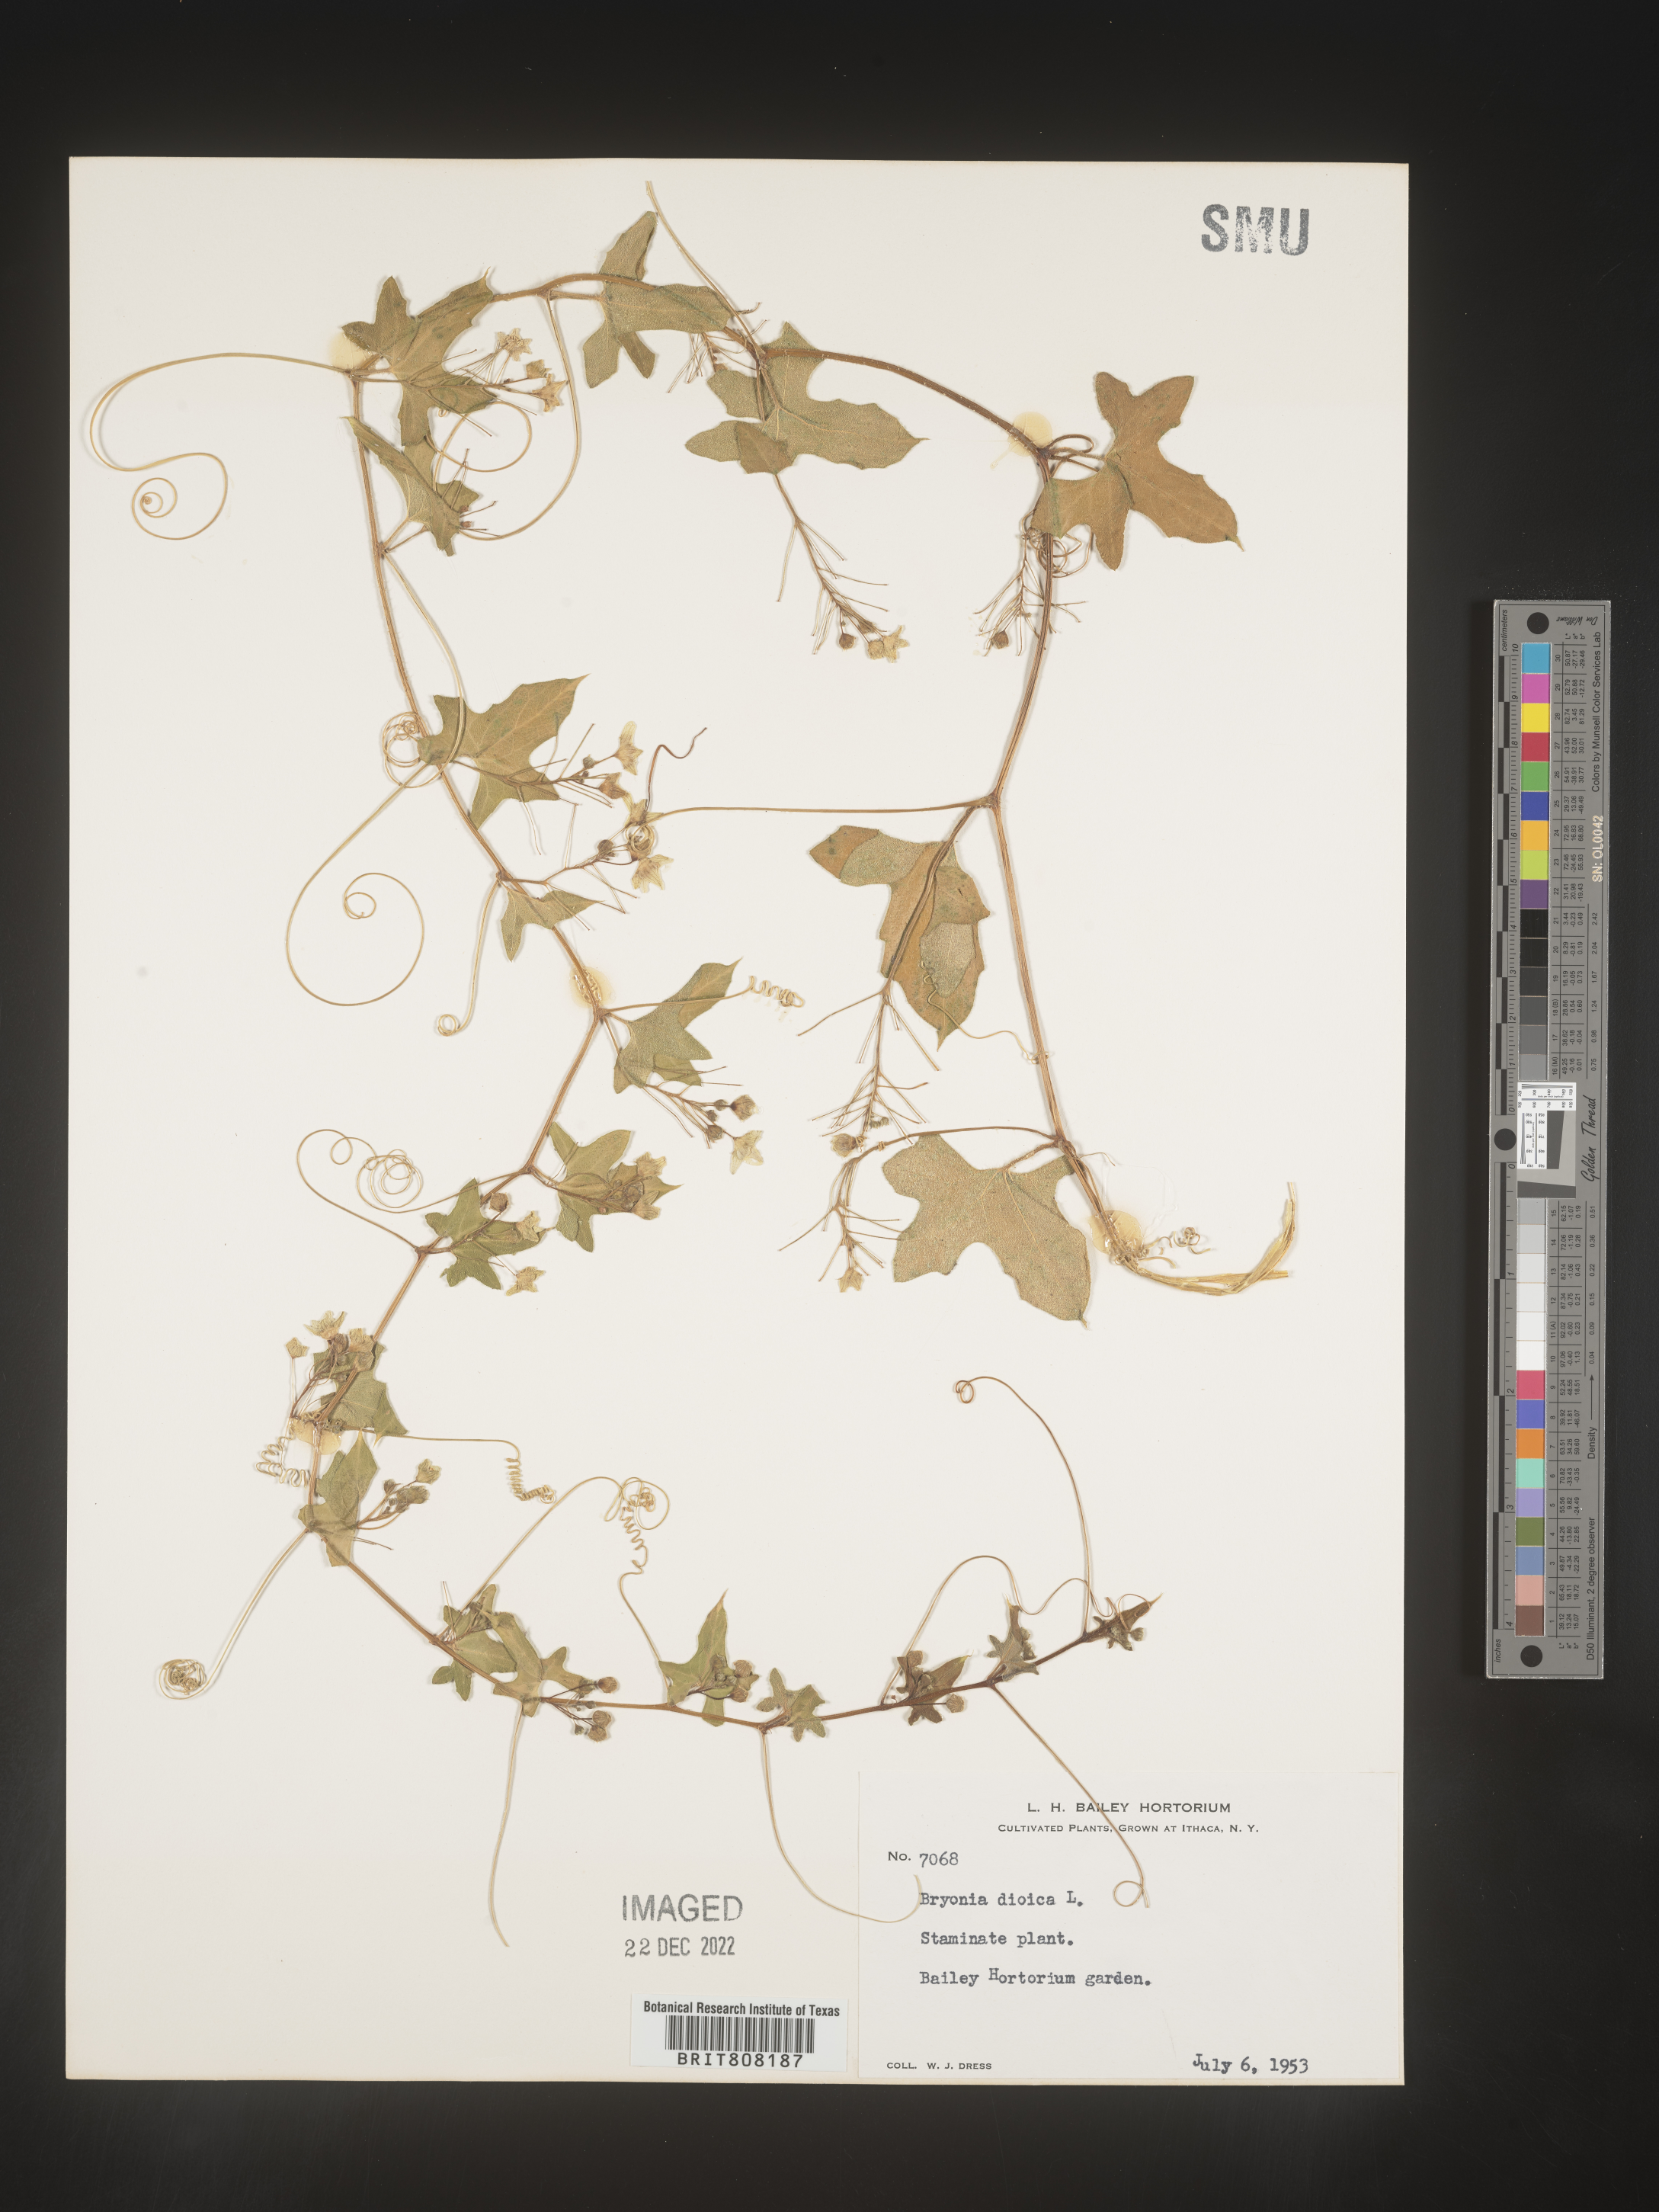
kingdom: Plantae
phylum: Tracheophyta
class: Magnoliopsida
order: Cucurbitales
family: Cucurbitaceae
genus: Bryonia
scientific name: Bryonia
